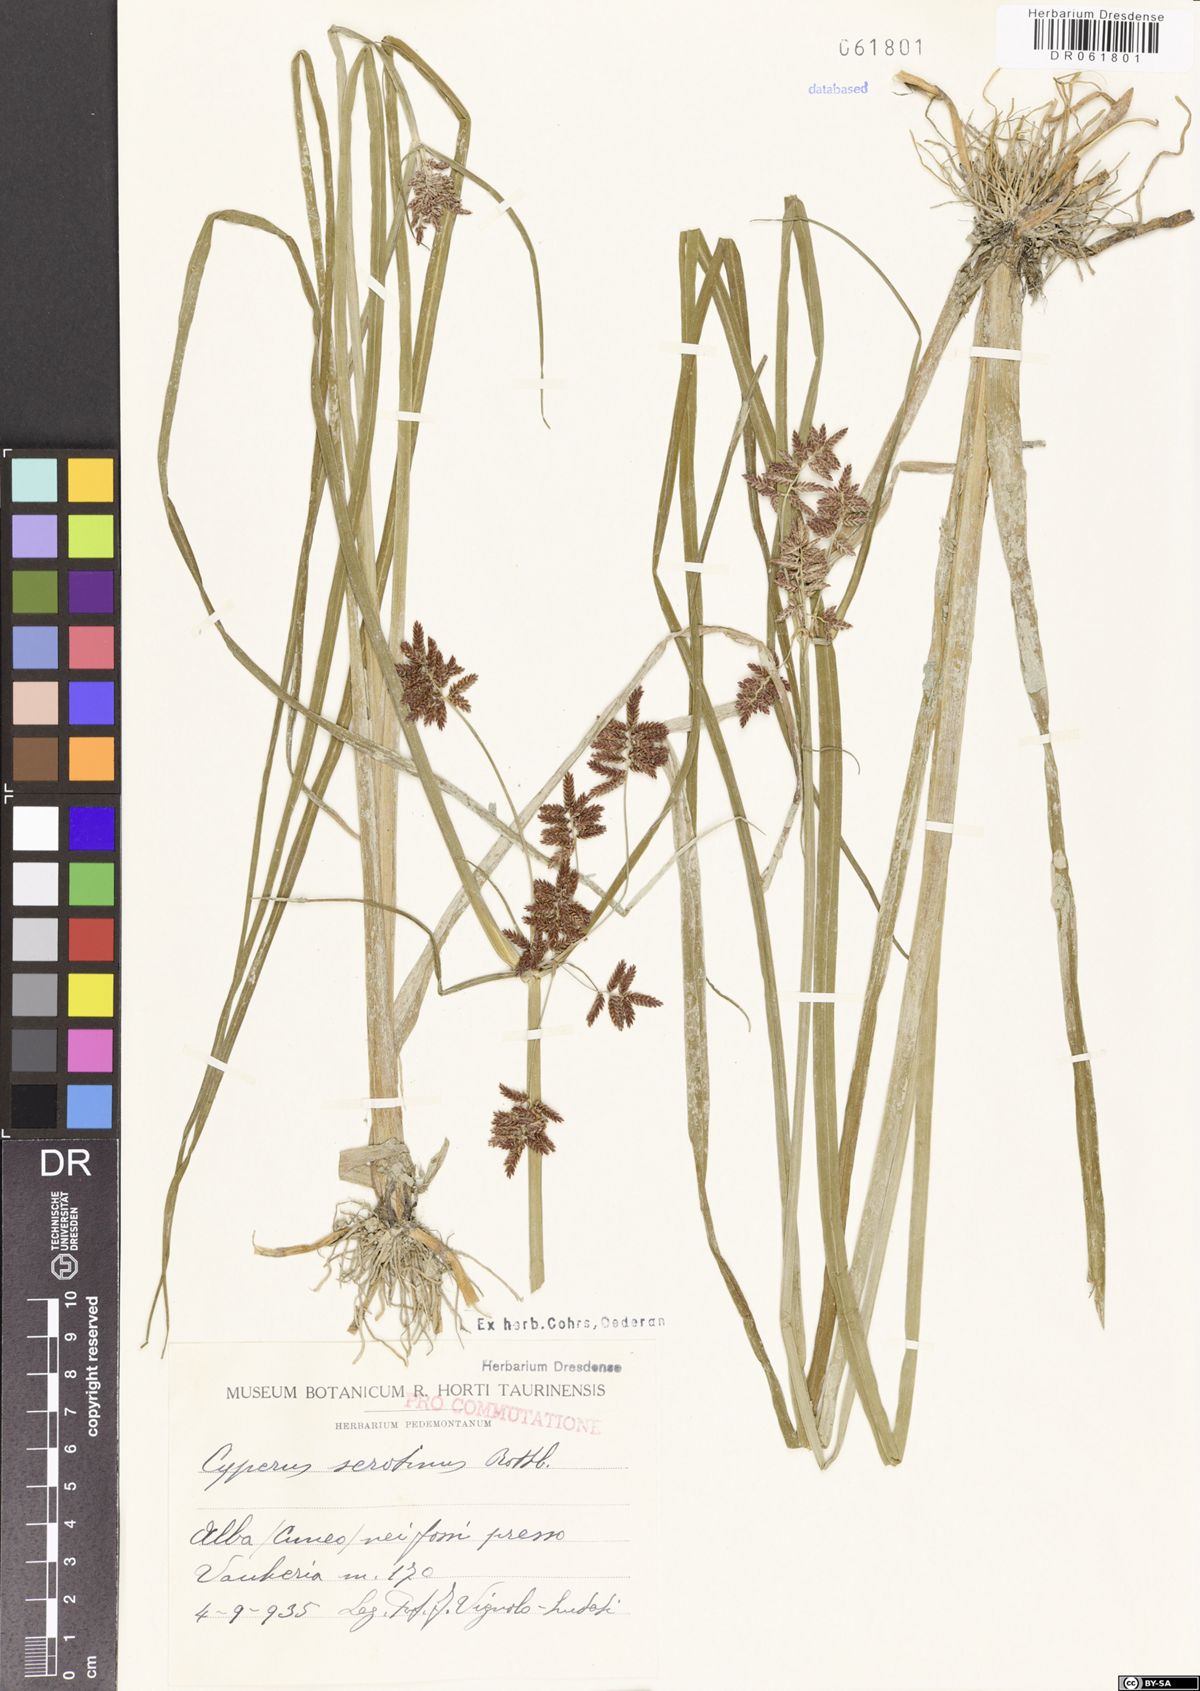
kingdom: Plantae
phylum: Tracheophyta
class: Liliopsida
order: Poales
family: Cyperaceae
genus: Cyperus
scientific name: Cyperus serotinus
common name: Tidalmarsh flatsedge
